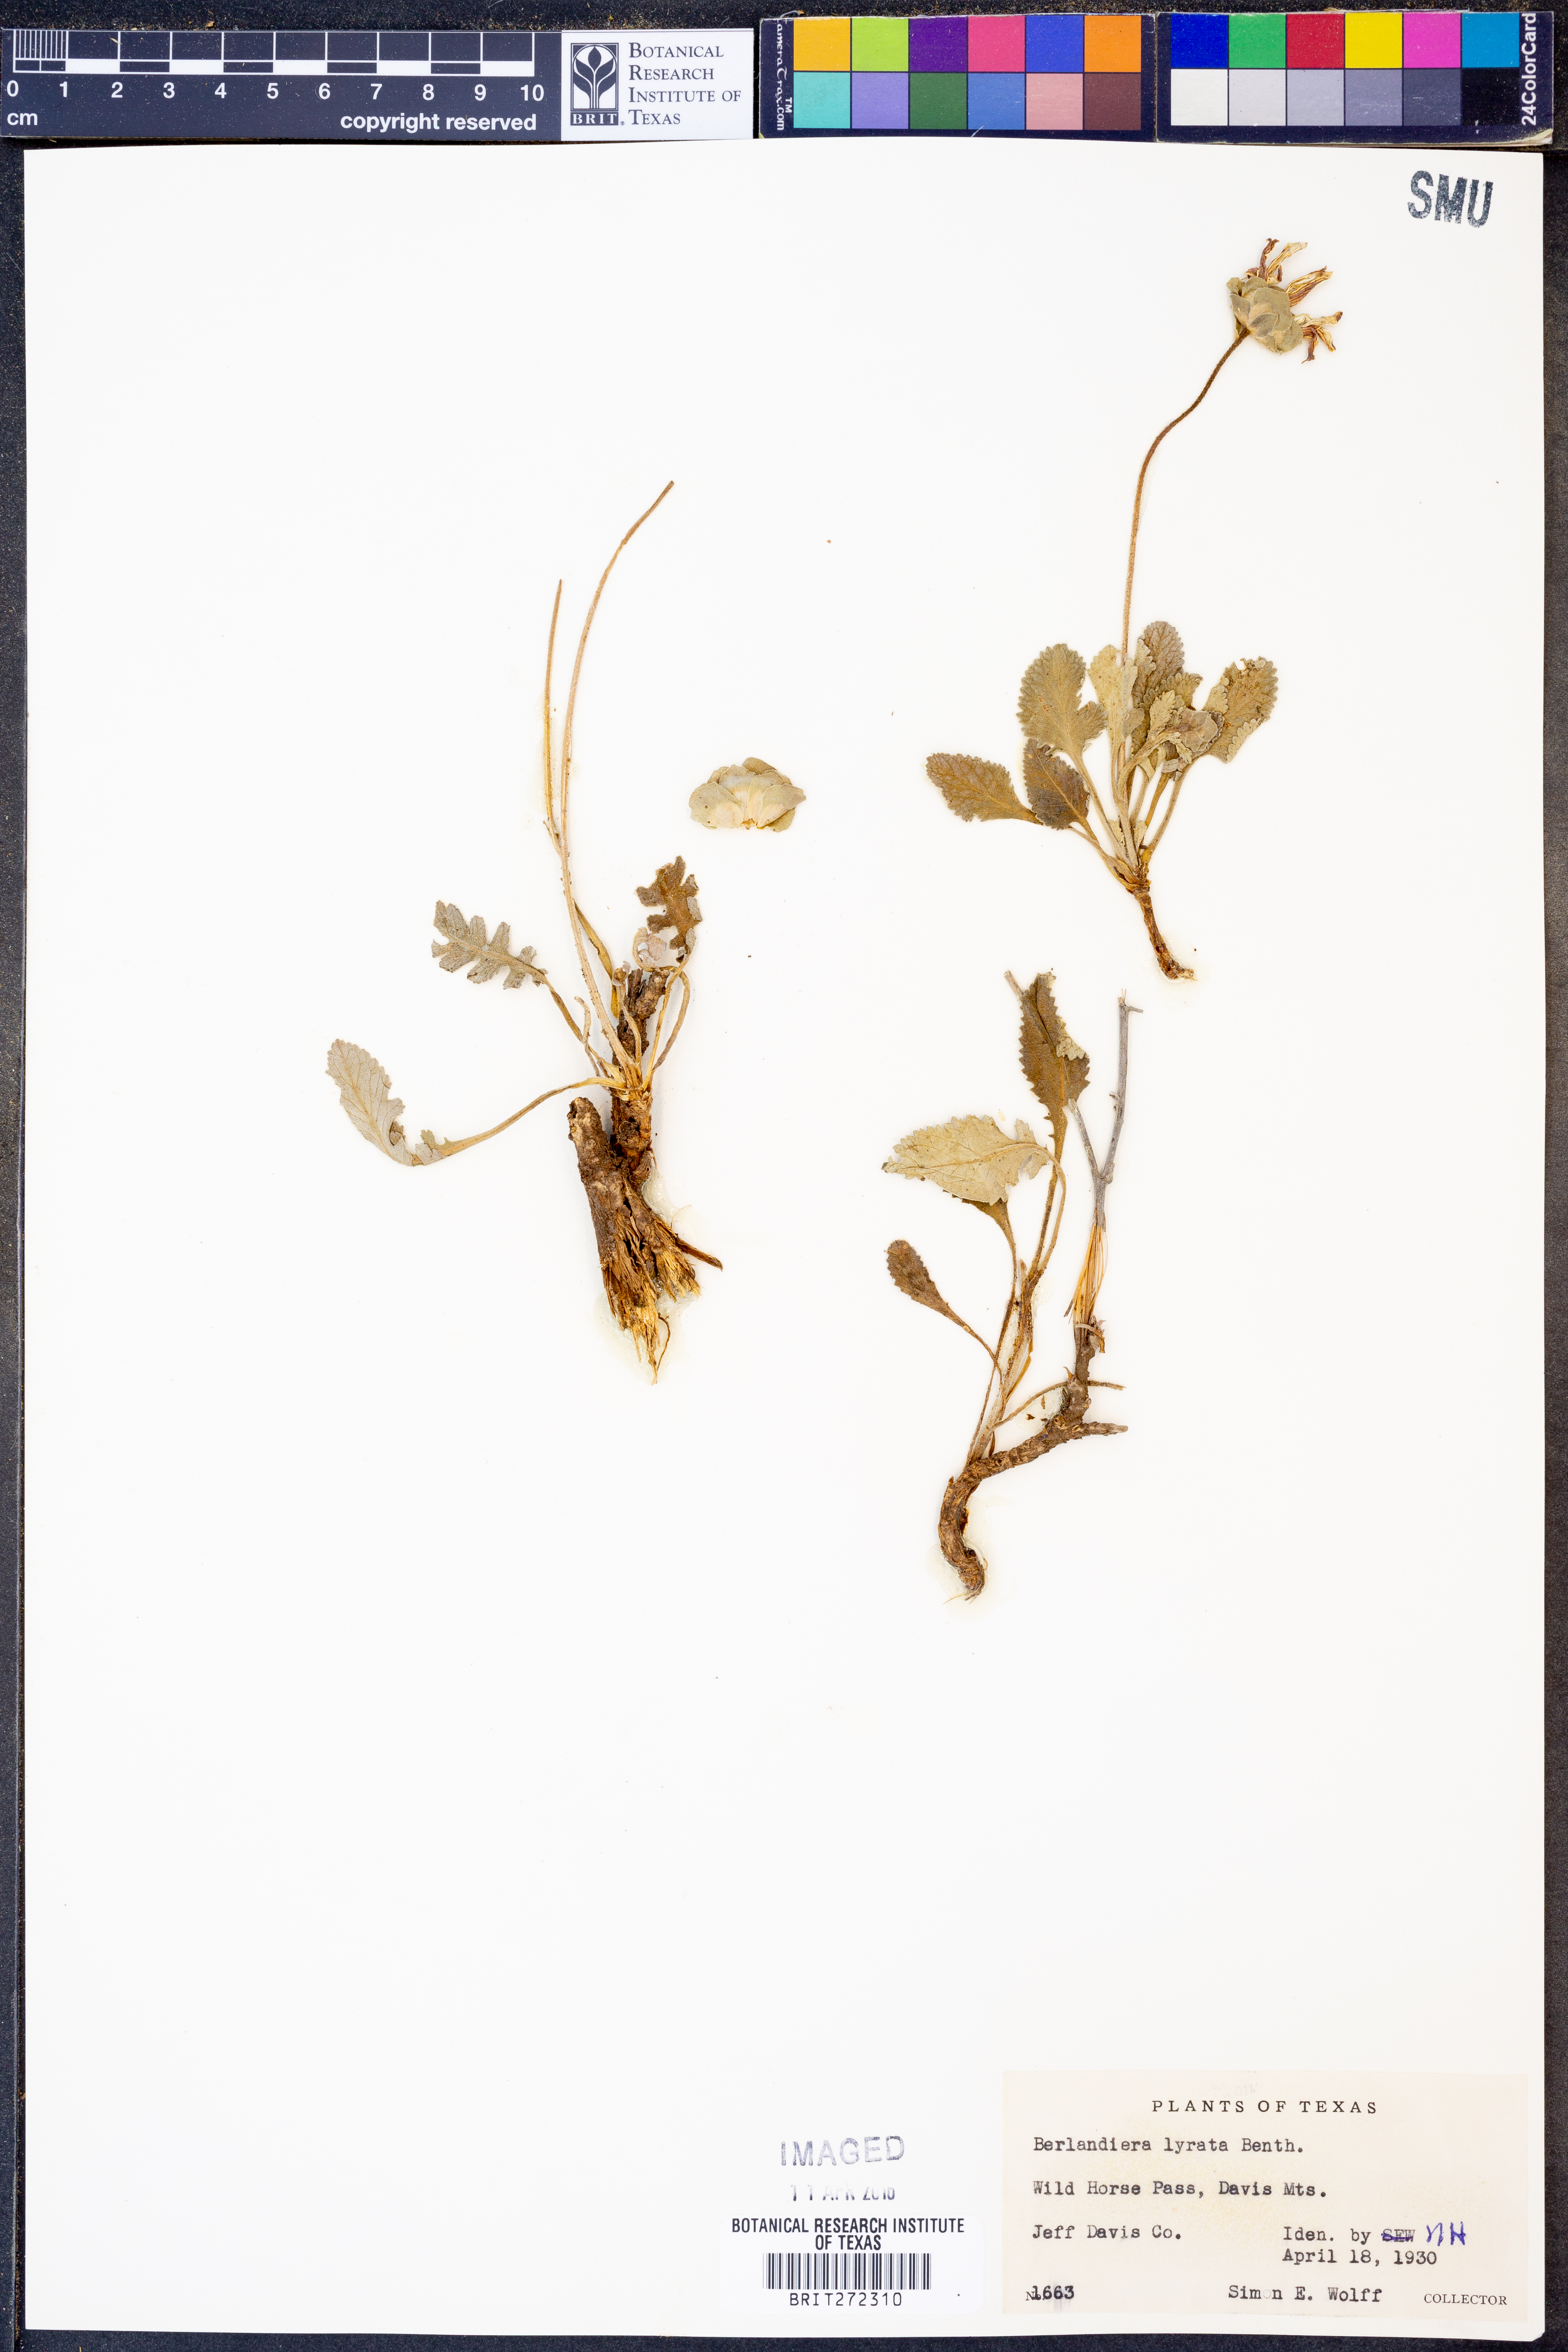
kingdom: Plantae
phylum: Tracheophyta
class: Magnoliopsida
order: Asterales
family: Asteraceae
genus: Berlandiera
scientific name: Berlandiera lyrata
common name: Chocolate-flower
